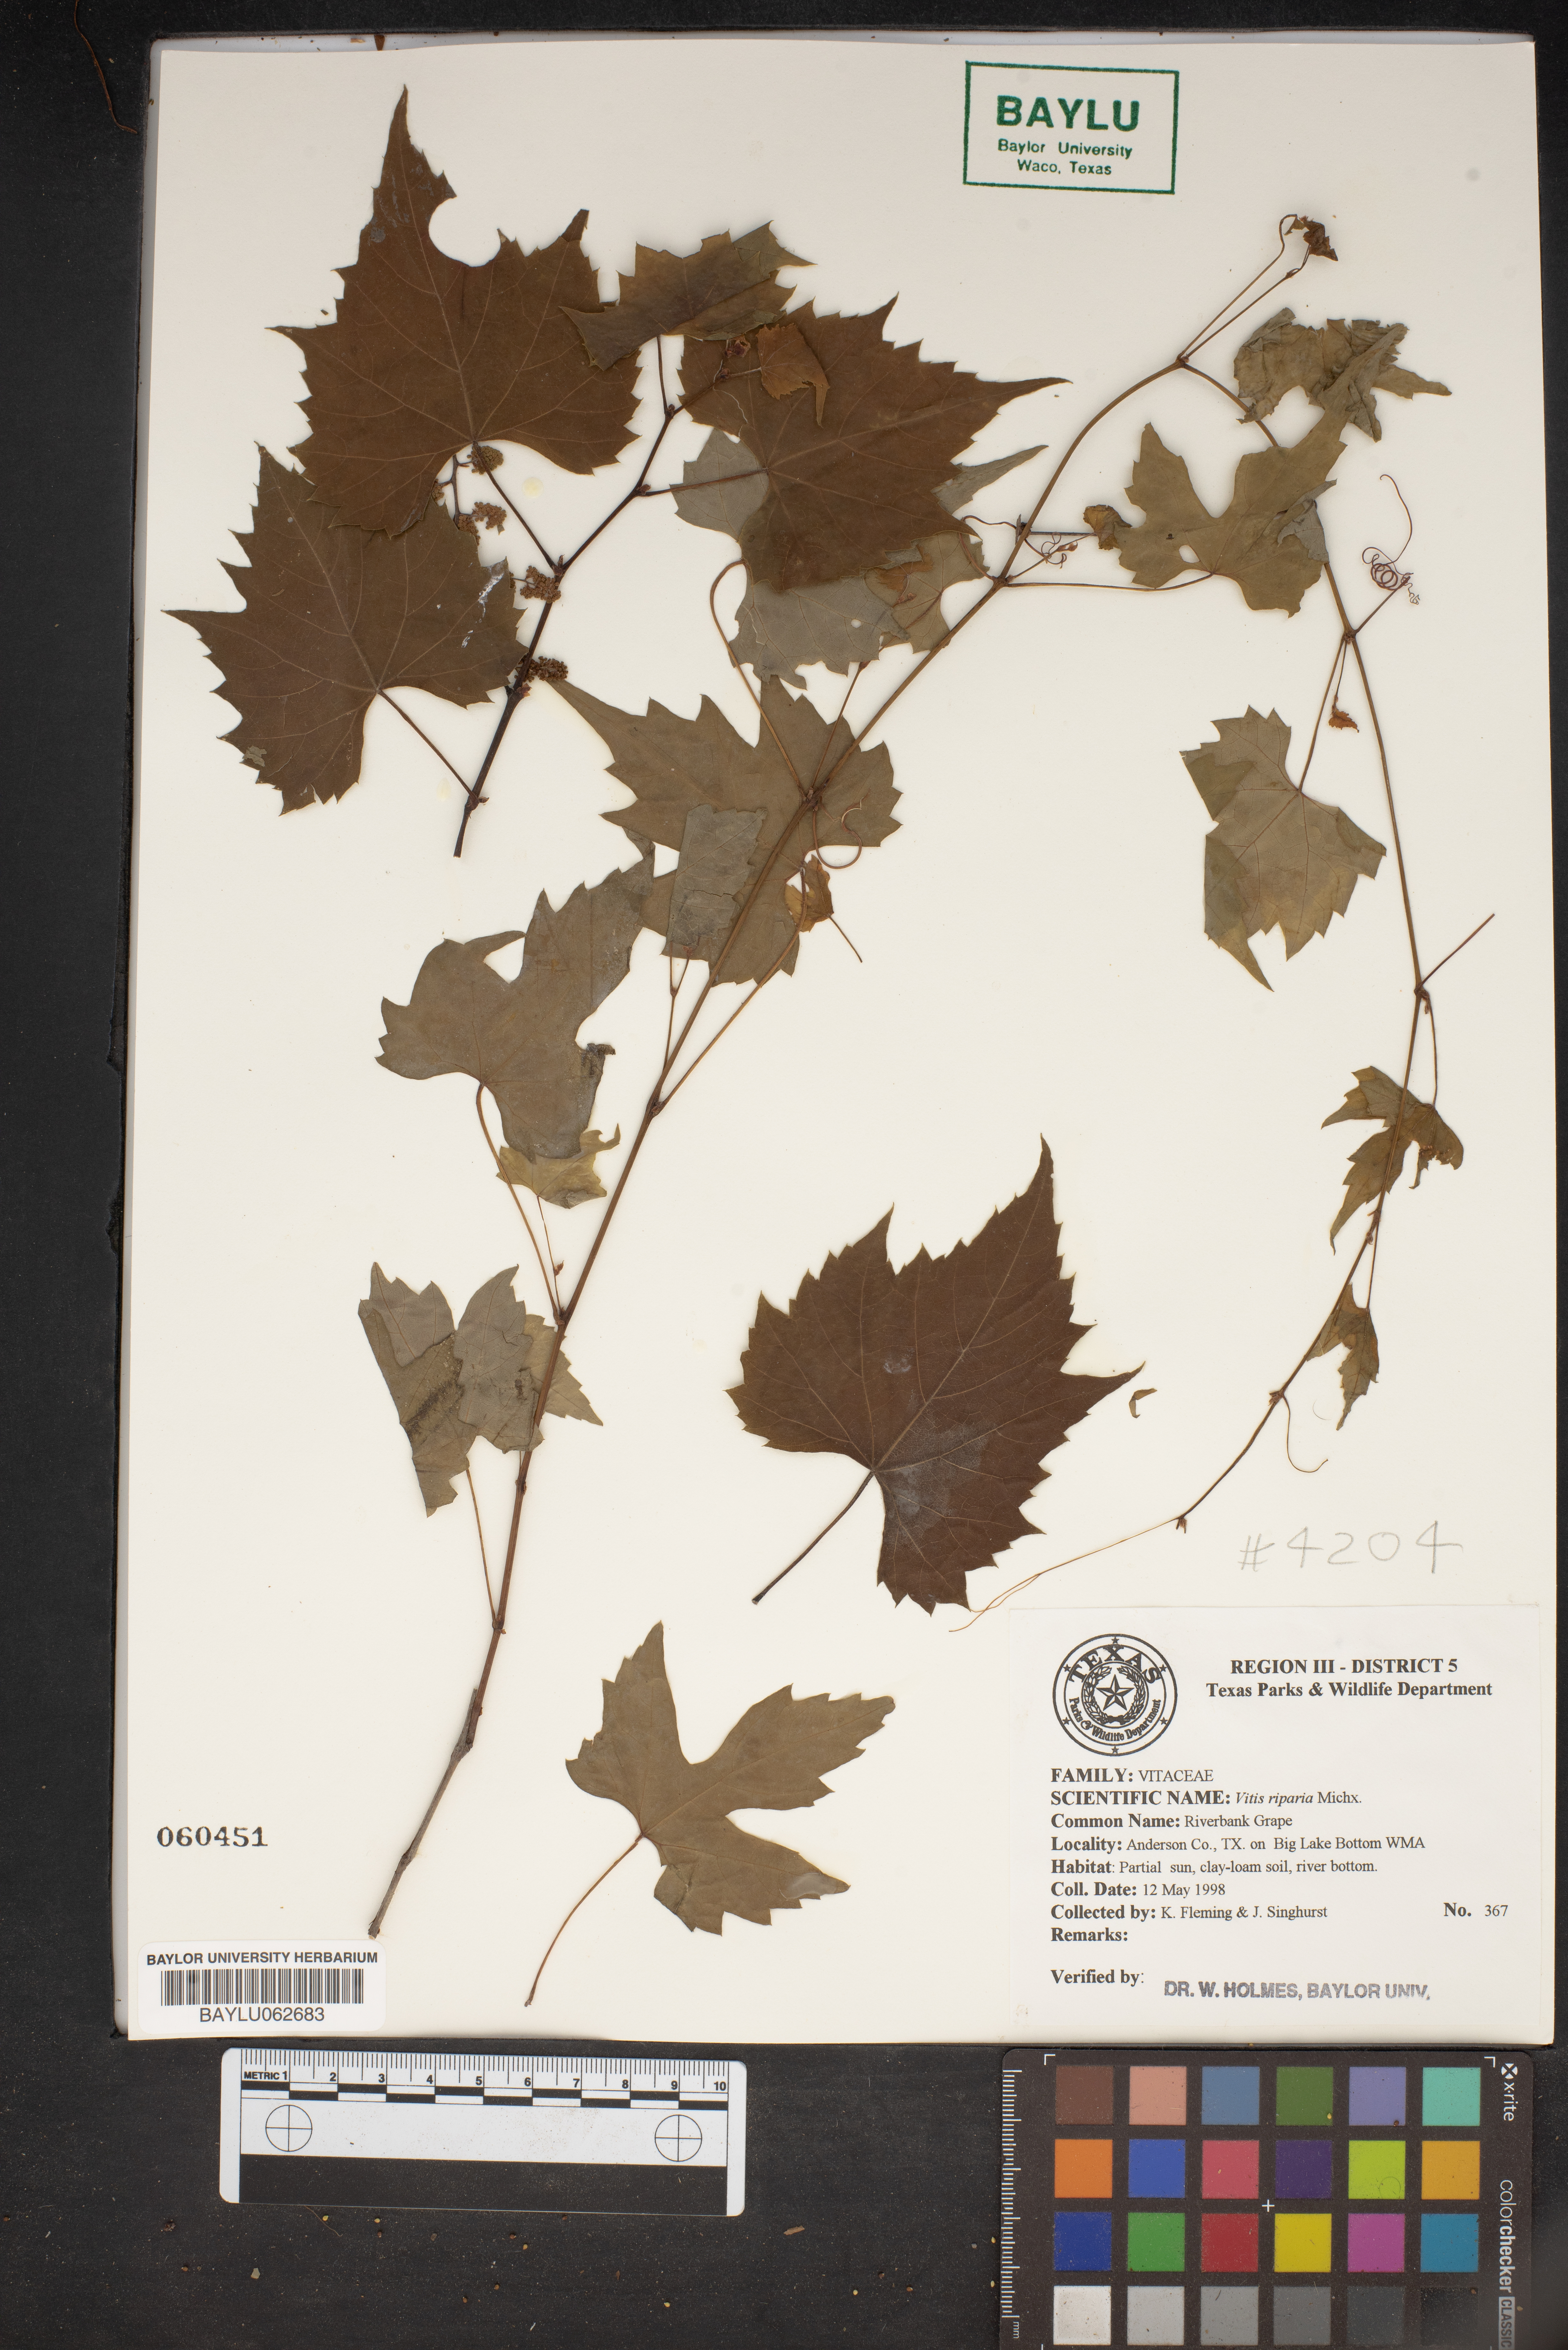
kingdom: Plantae
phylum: Tracheophyta
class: Magnoliopsida
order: Vitales
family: Vitaceae
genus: Vitis
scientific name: Vitis riparia
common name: Frost grape
